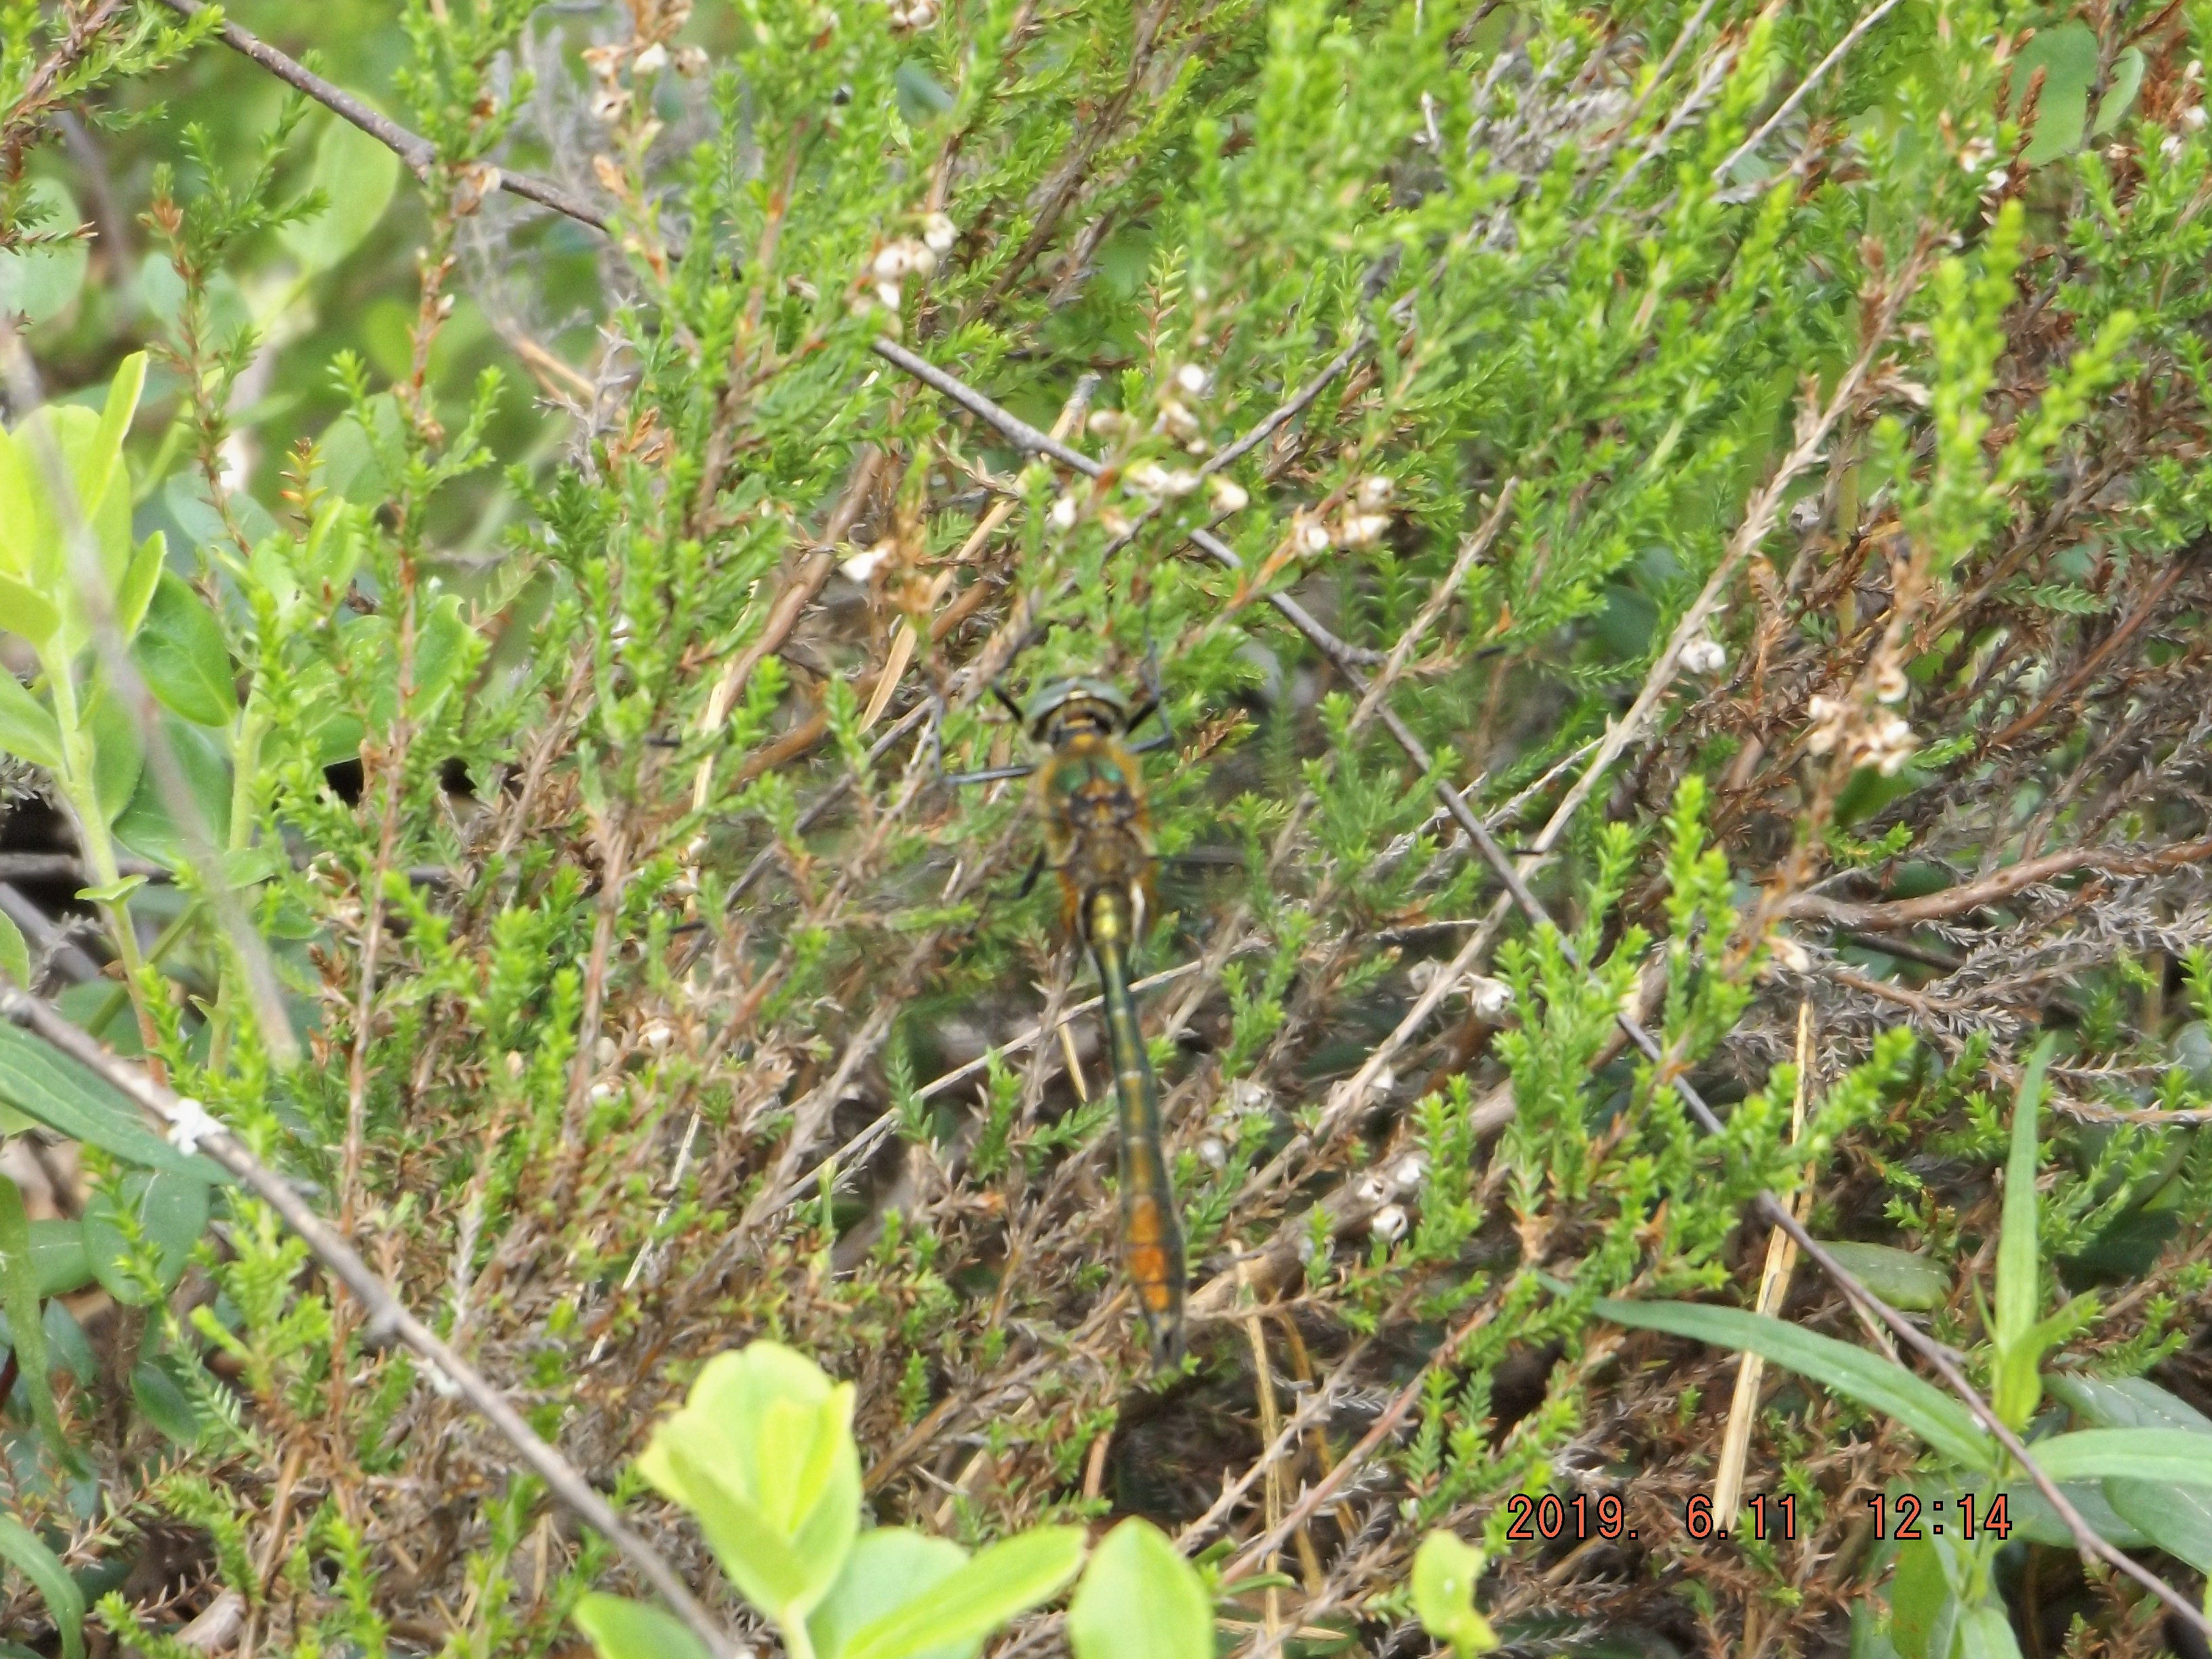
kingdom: Animalia
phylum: Arthropoda
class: Insecta
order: Odonata
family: Corduliidae
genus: Cordulia
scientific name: Cordulia aenea
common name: Downy emerald
